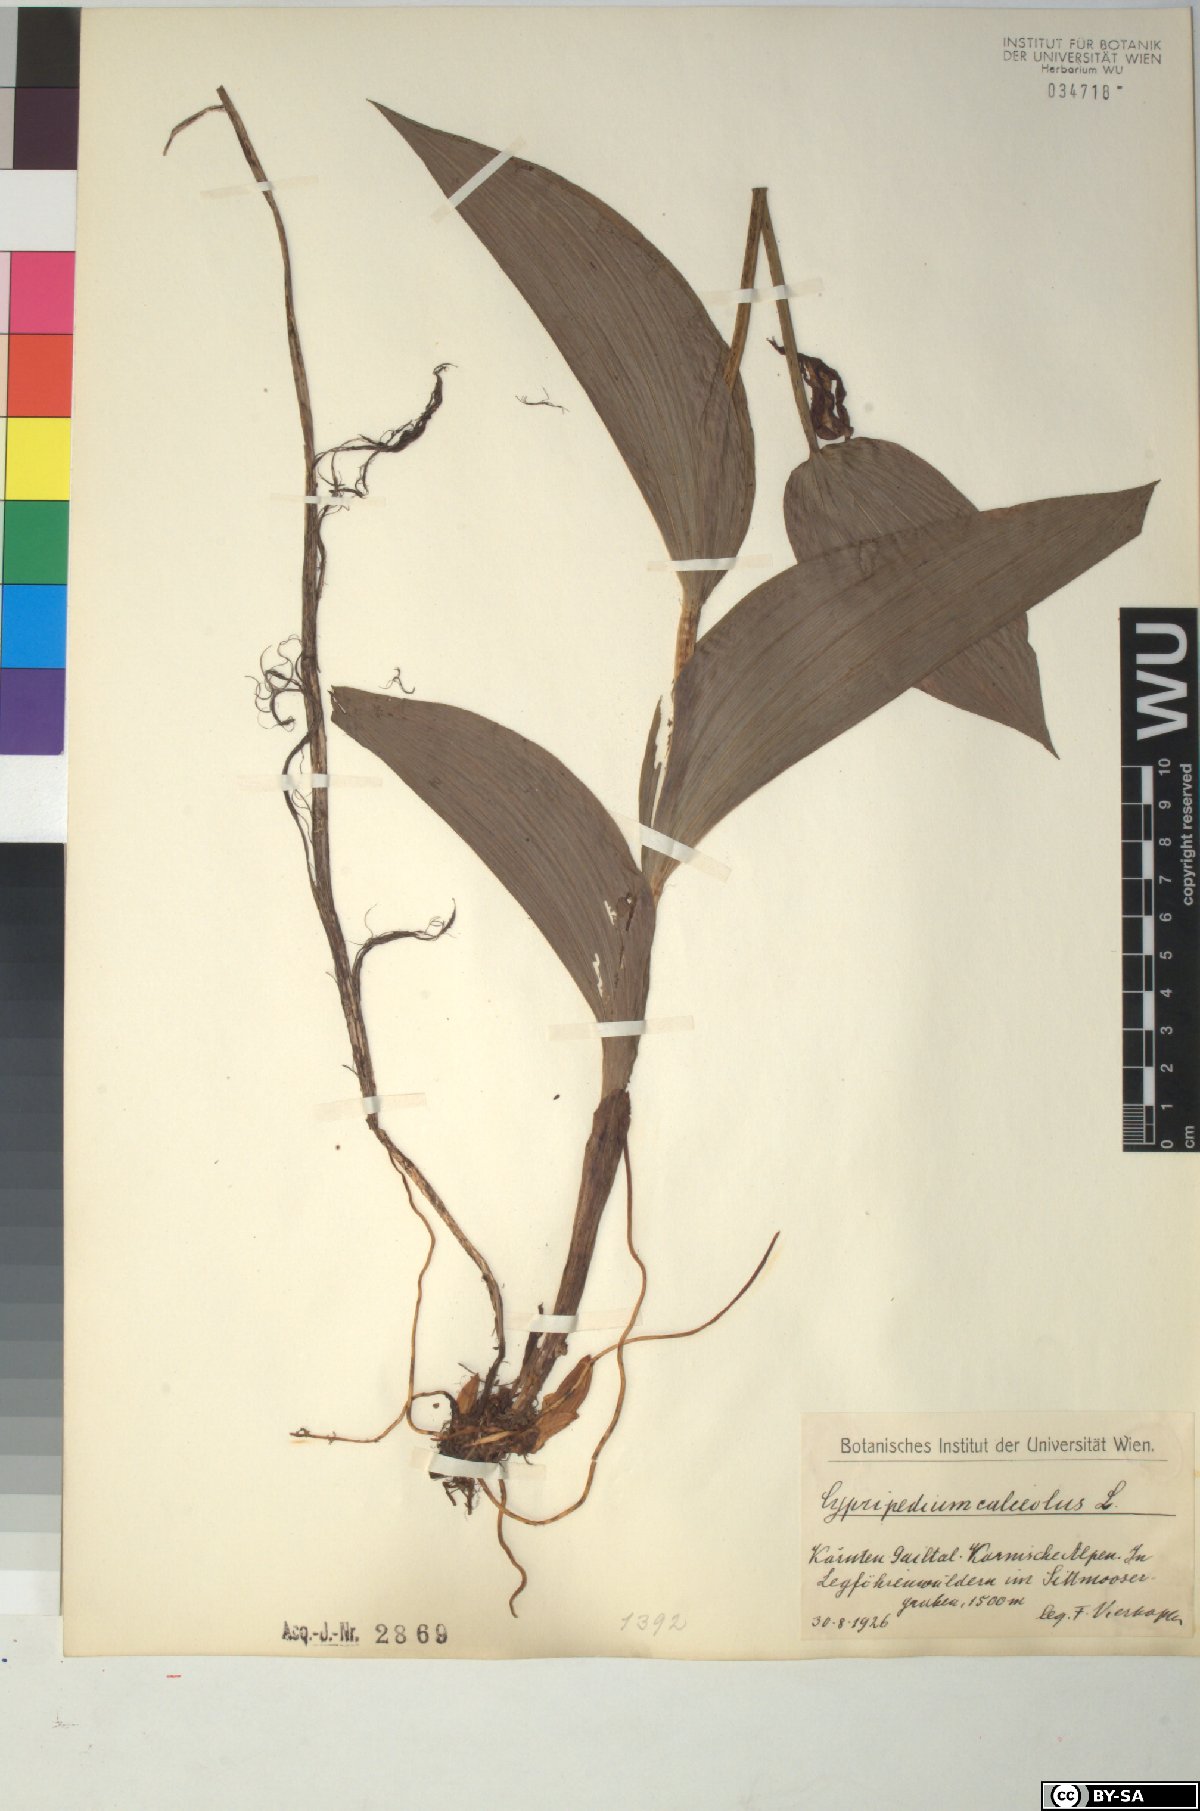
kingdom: Plantae
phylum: Tracheophyta
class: Liliopsida
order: Asparagales
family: Orchidaceae
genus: Cypripedium
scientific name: Cypripedium calceolus
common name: Lady's-slipper
